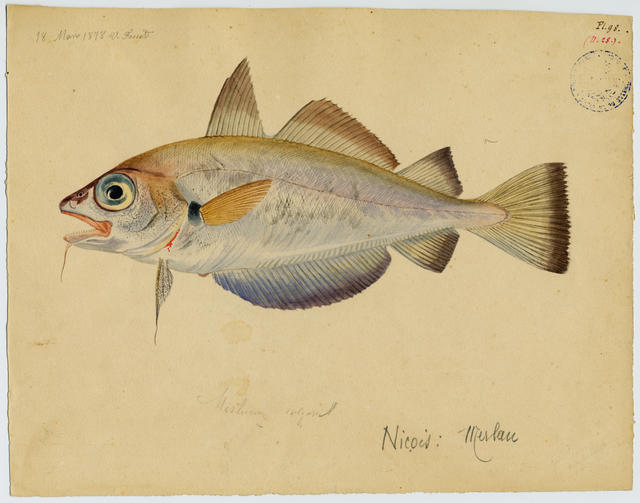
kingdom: Animalia
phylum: Chordata
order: Gadiformes
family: Gadidae
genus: Trisopterus
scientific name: Trisopterus luscus
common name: Bib
